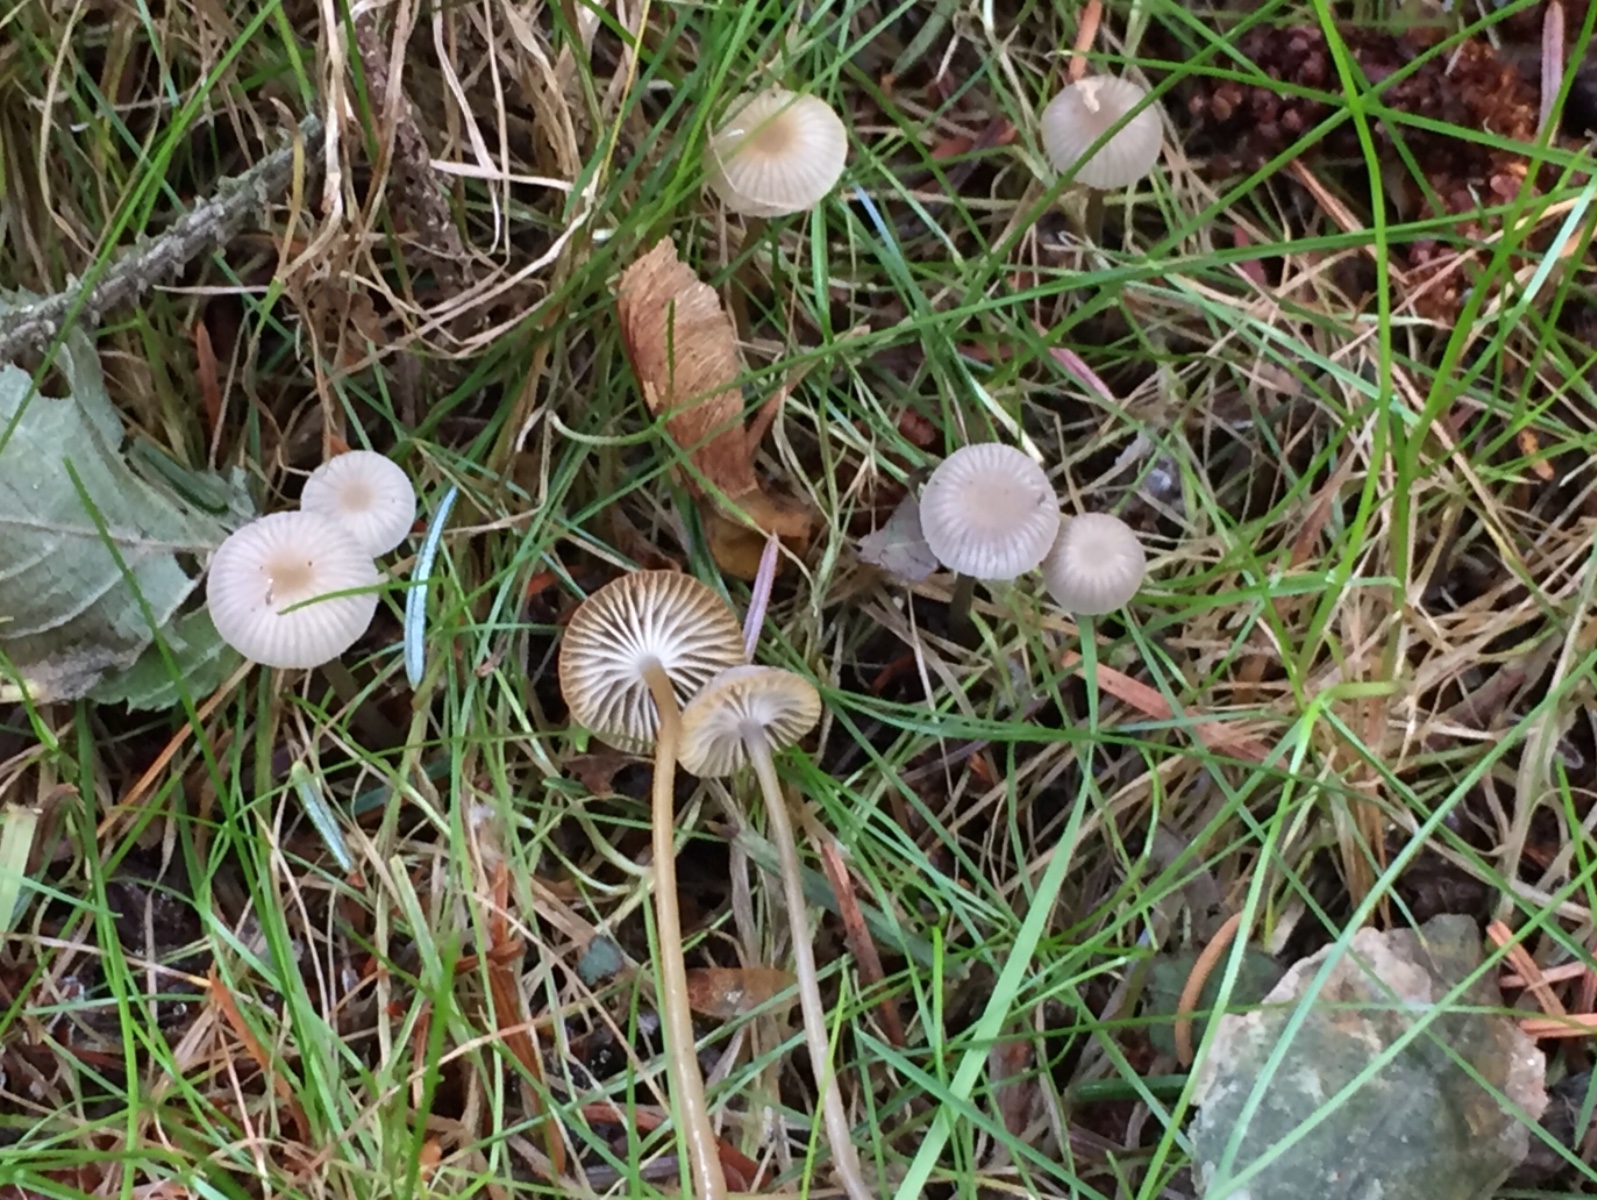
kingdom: Fungi
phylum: Basidiomycota
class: Agaricomycetes
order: Agaricales
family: Mycenaceae
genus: Mycena
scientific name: Mycena vulgaris
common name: klæbrig huesvamp
